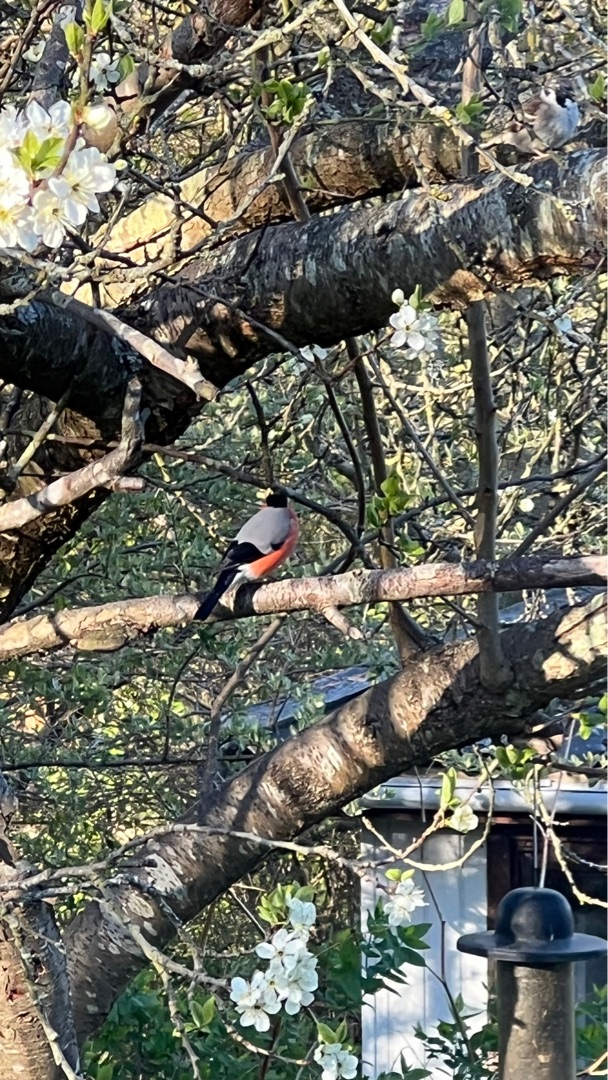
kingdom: Animalia
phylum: Chordata
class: Aves
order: Passeriformes
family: Fringillidae
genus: Pyrrhula
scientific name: Pyrrhula pyrrhula
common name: Dompap
